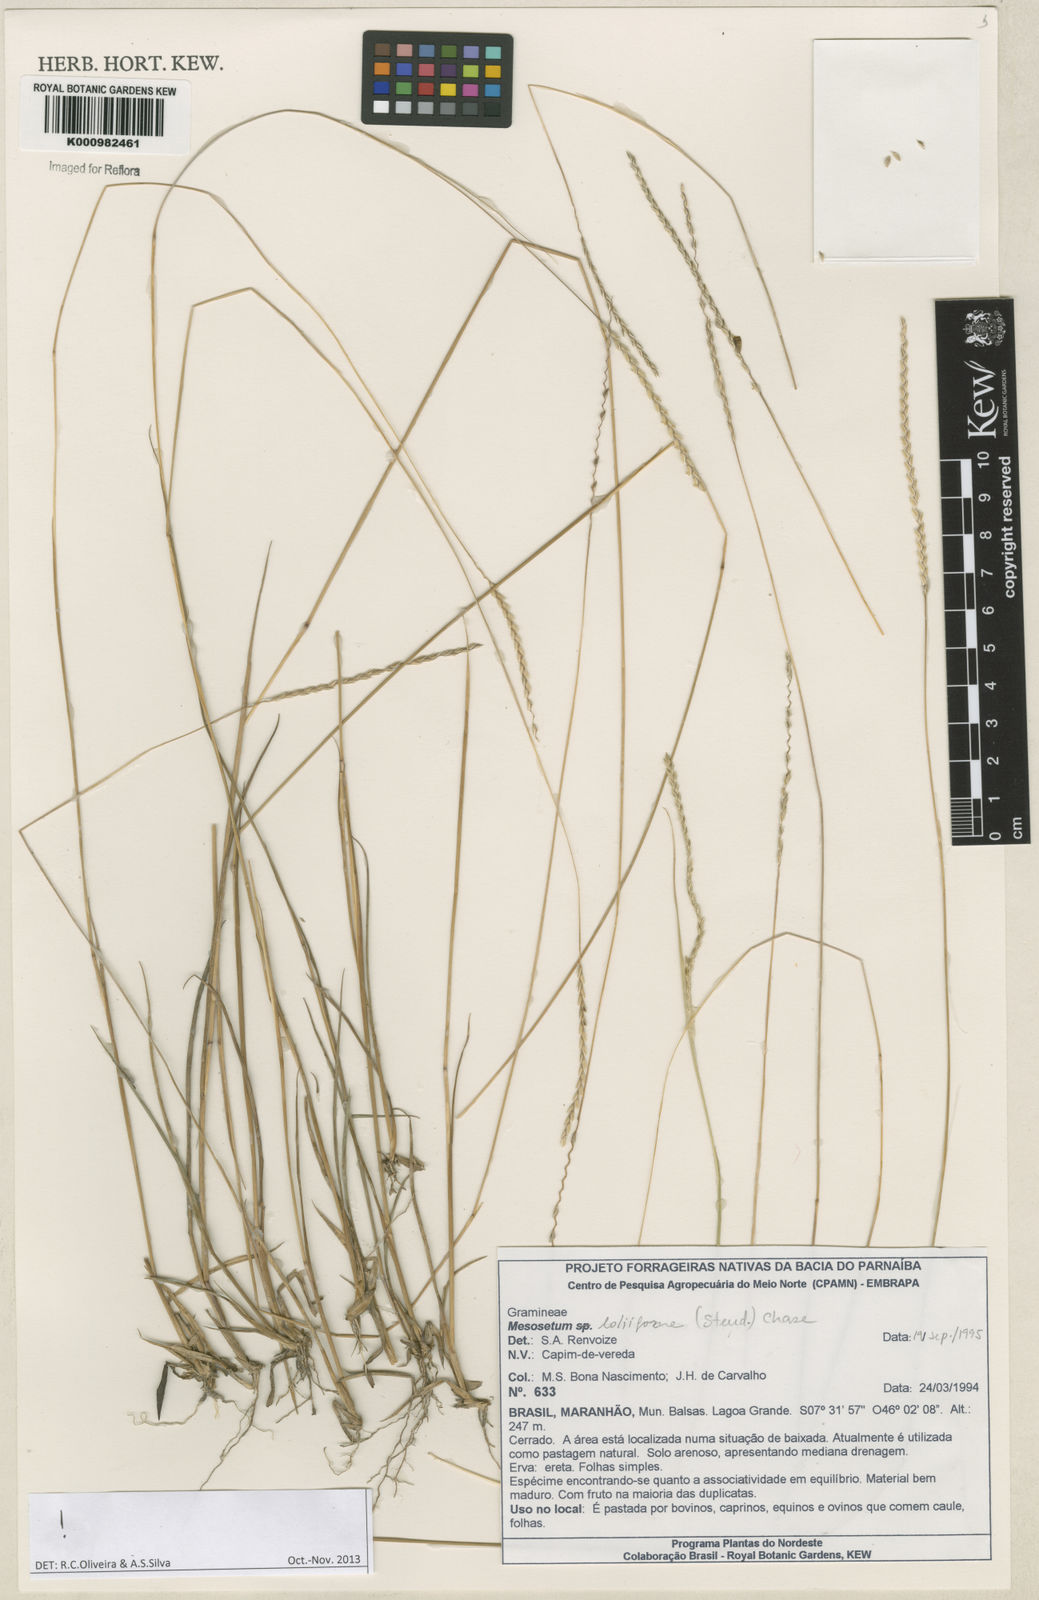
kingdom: Plantae
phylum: Tracheophyta
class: Liliopsida
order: Poales
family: Poaceae
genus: Mesosetum
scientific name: Mesosetum
